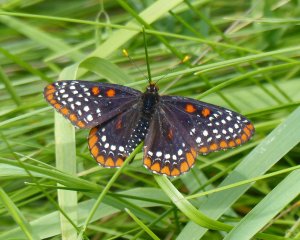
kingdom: Animalia
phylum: Arthropoda
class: Insecta
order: Lepidoptera
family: Nymphalidae
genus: Euphydryas
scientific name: Euphydryas phaeton
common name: Baltimore Checkerspot
